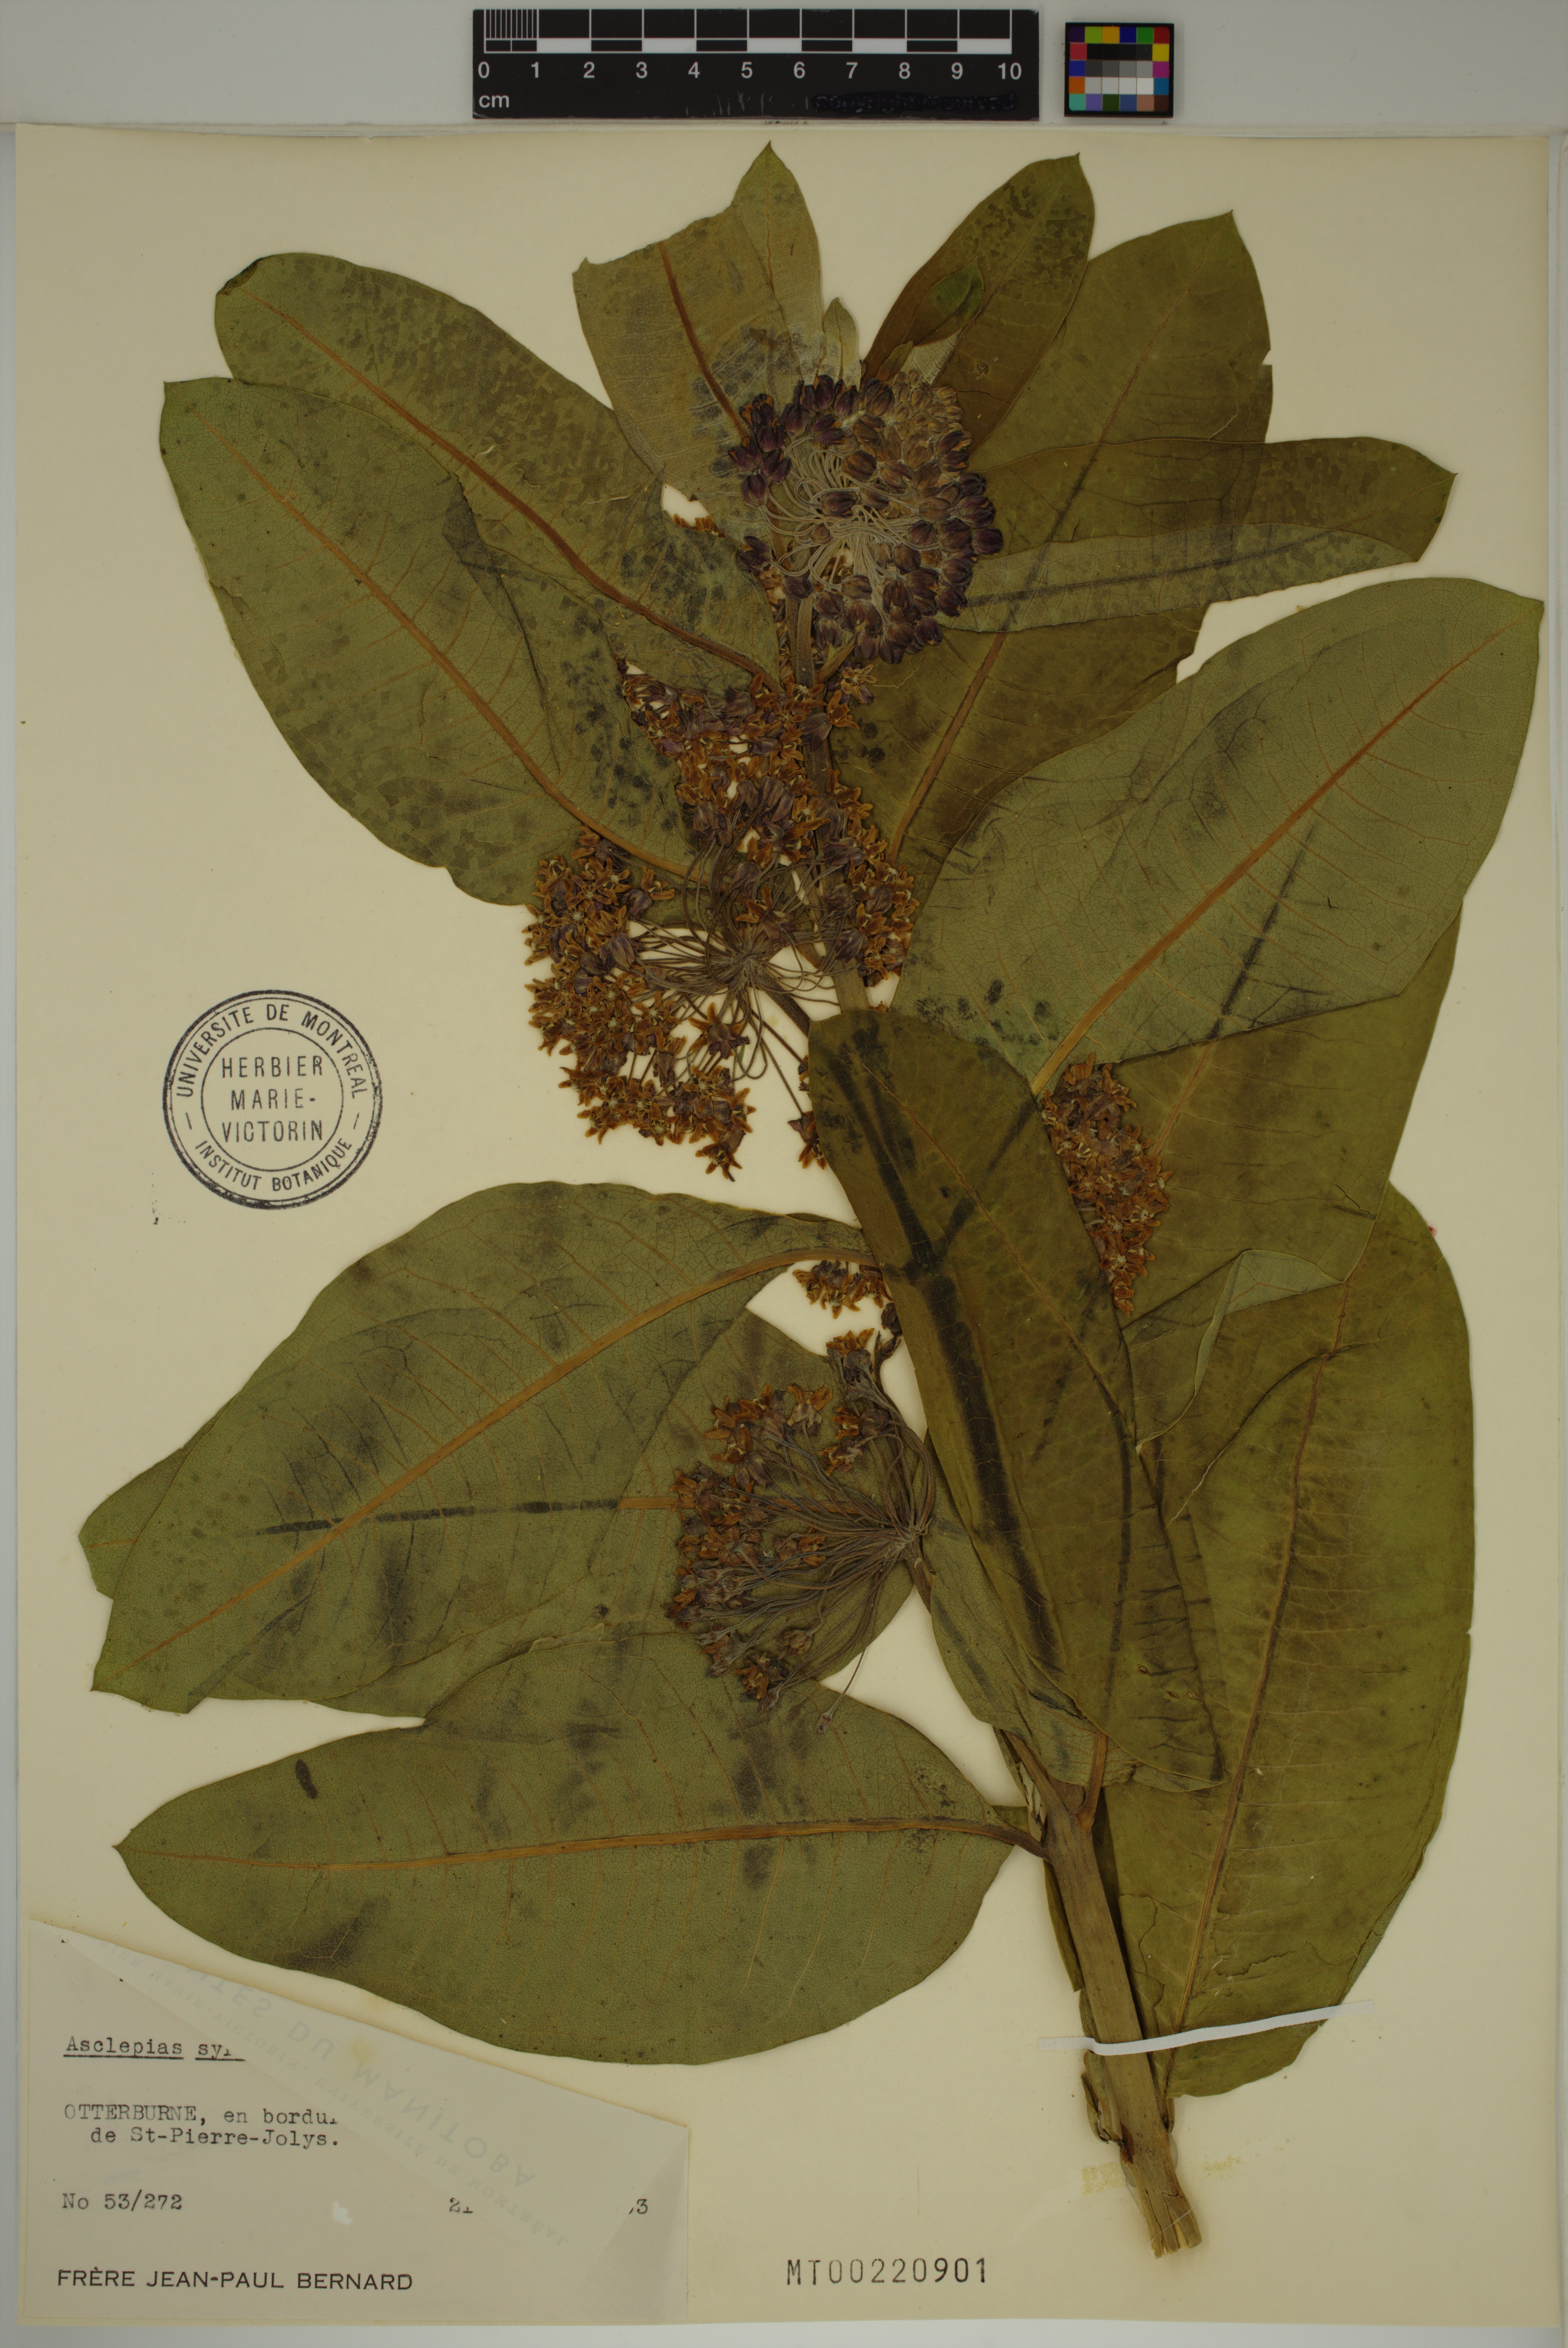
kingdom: Plantae
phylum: Tracheophyta
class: Magnoliopsida
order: Gentianales
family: Apocynaceae
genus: Asclepias
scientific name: Asclepias syriaca
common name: Common milkweed
